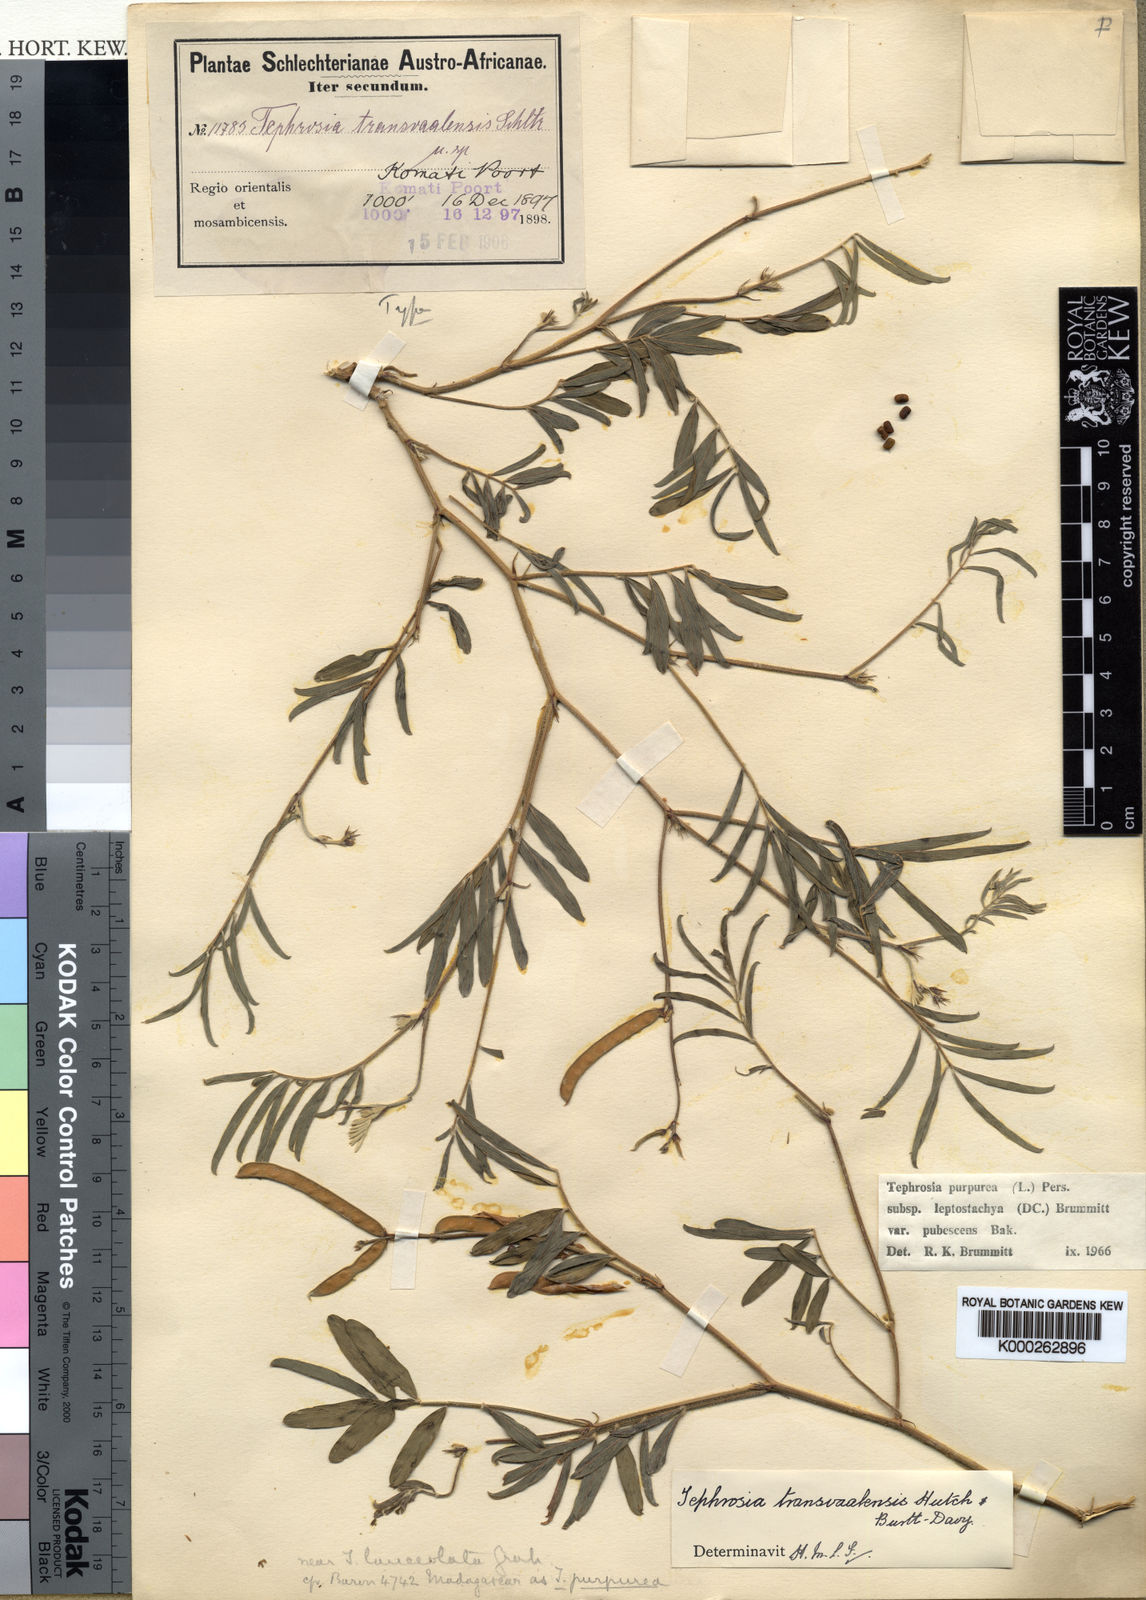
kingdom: Plantae
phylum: Tracheophyta
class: Magnoliopsida
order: Fabales
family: Fabaceae
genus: Tephrosia
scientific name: Tephrosia purpurea
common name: Fishpoison
